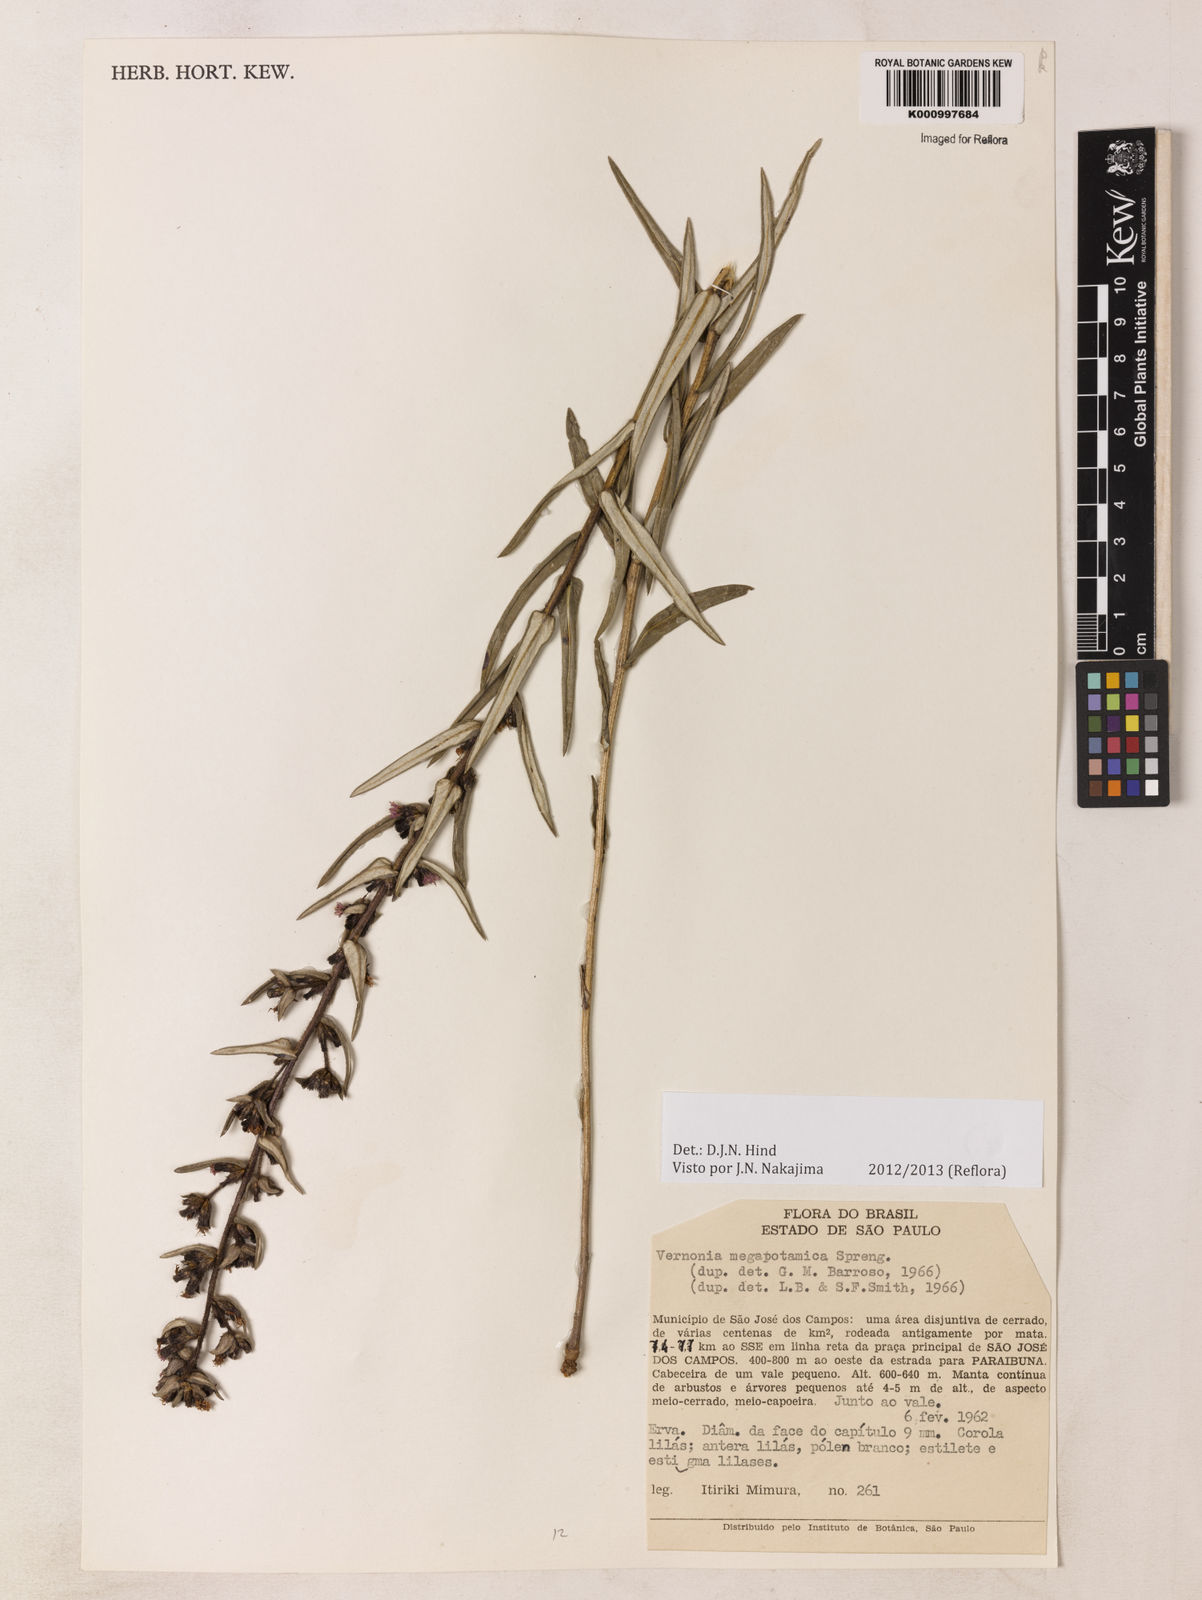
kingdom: Plantae
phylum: Tracheophyta
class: Magnoliopsida
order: Asterales
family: Asteraceae
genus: Stenocephalum
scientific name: Stenocephalum megapotamicum
